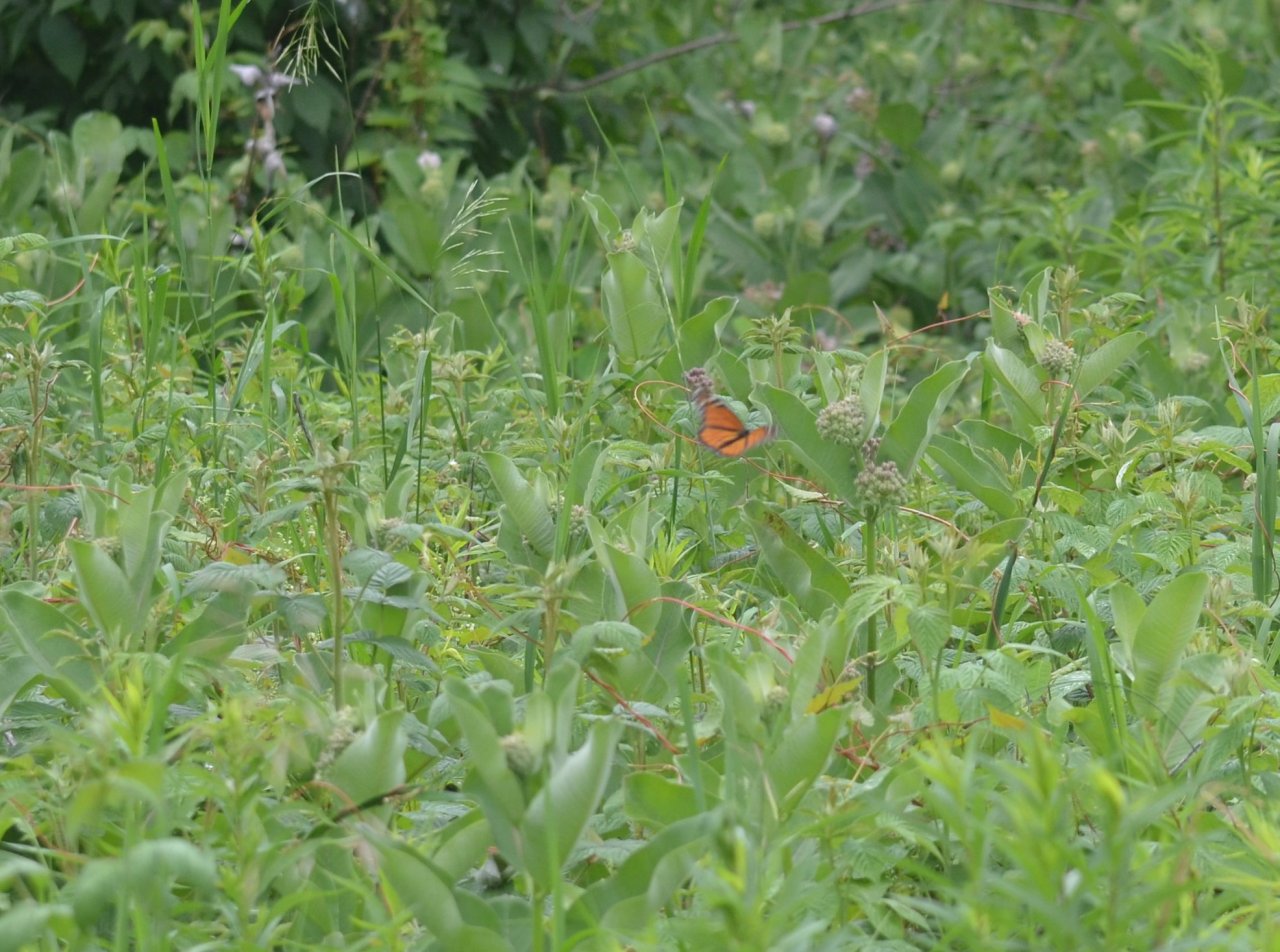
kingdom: Animalia
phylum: Arthropoda
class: Insecta
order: Lepidoptera
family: Nymphalidae
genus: Danaus
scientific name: Danaus plexippus
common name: Monarch
